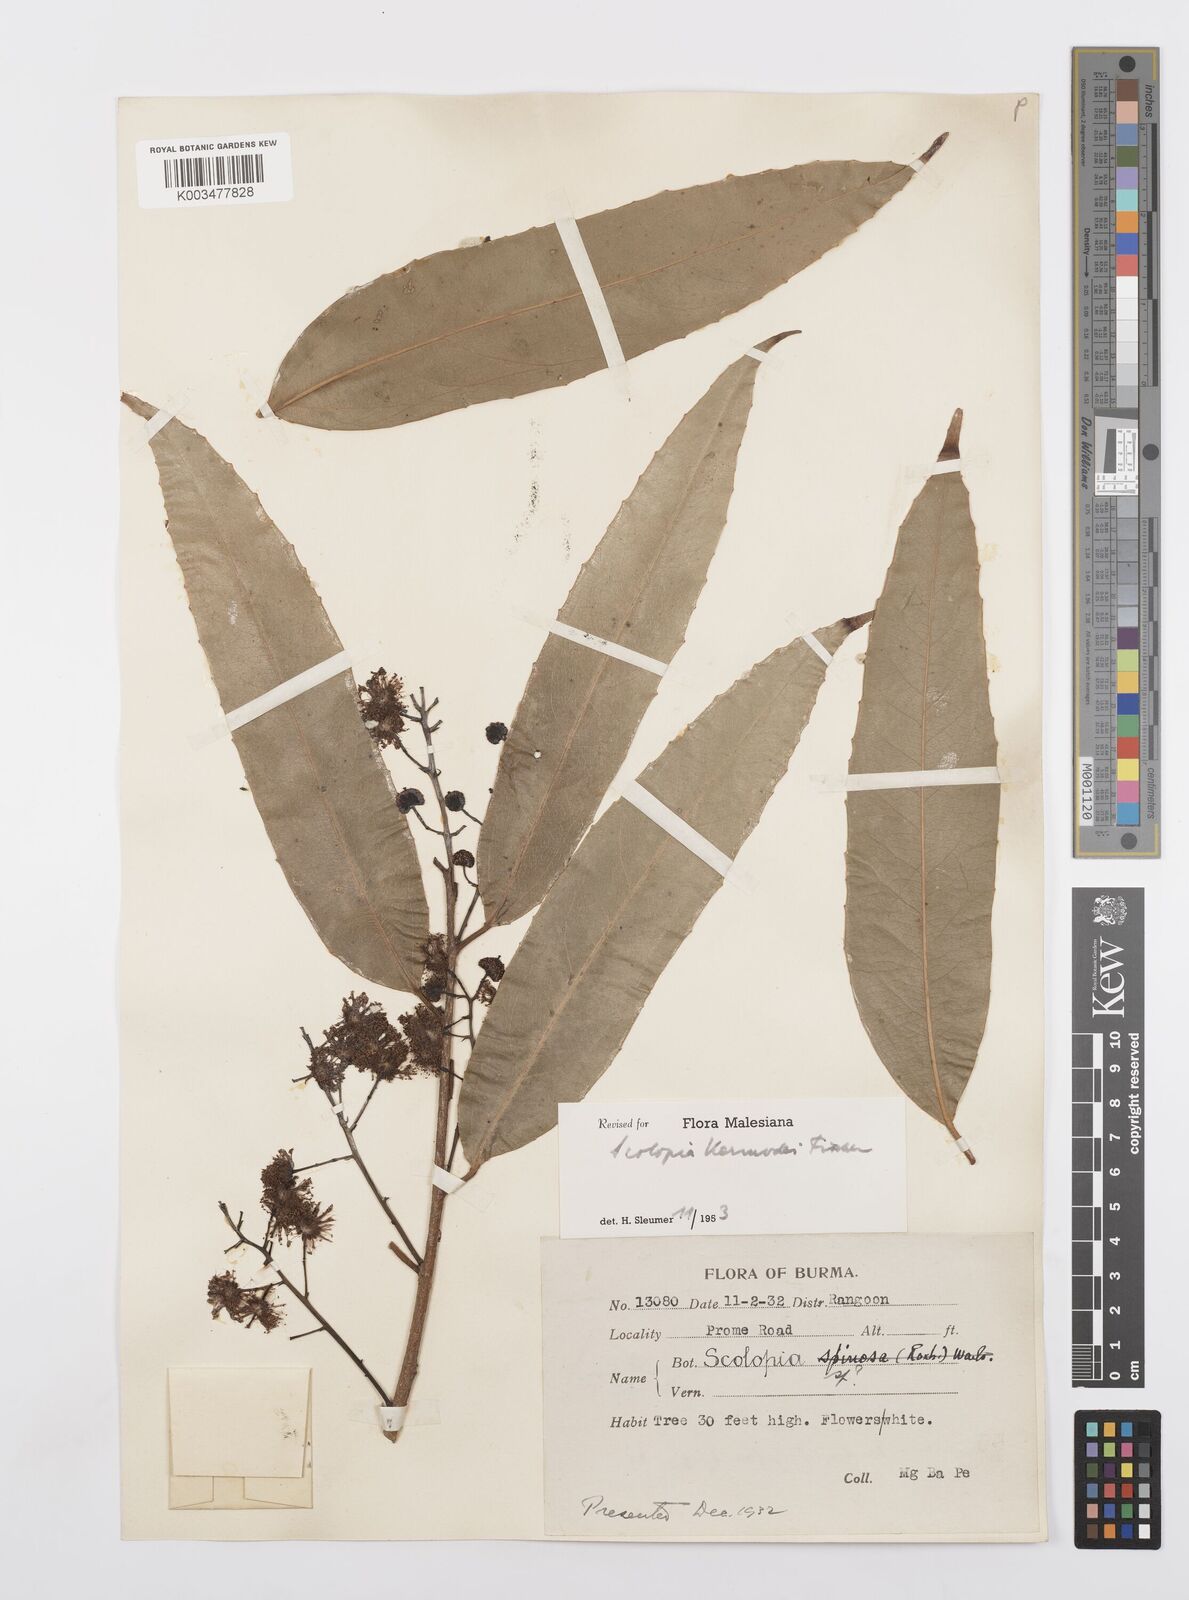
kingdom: Plantae
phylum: Tracheophyta
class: Magnoliopsida
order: Malpighiales
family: Salicaceae
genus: Scolopia
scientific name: Scolopia kermodei
